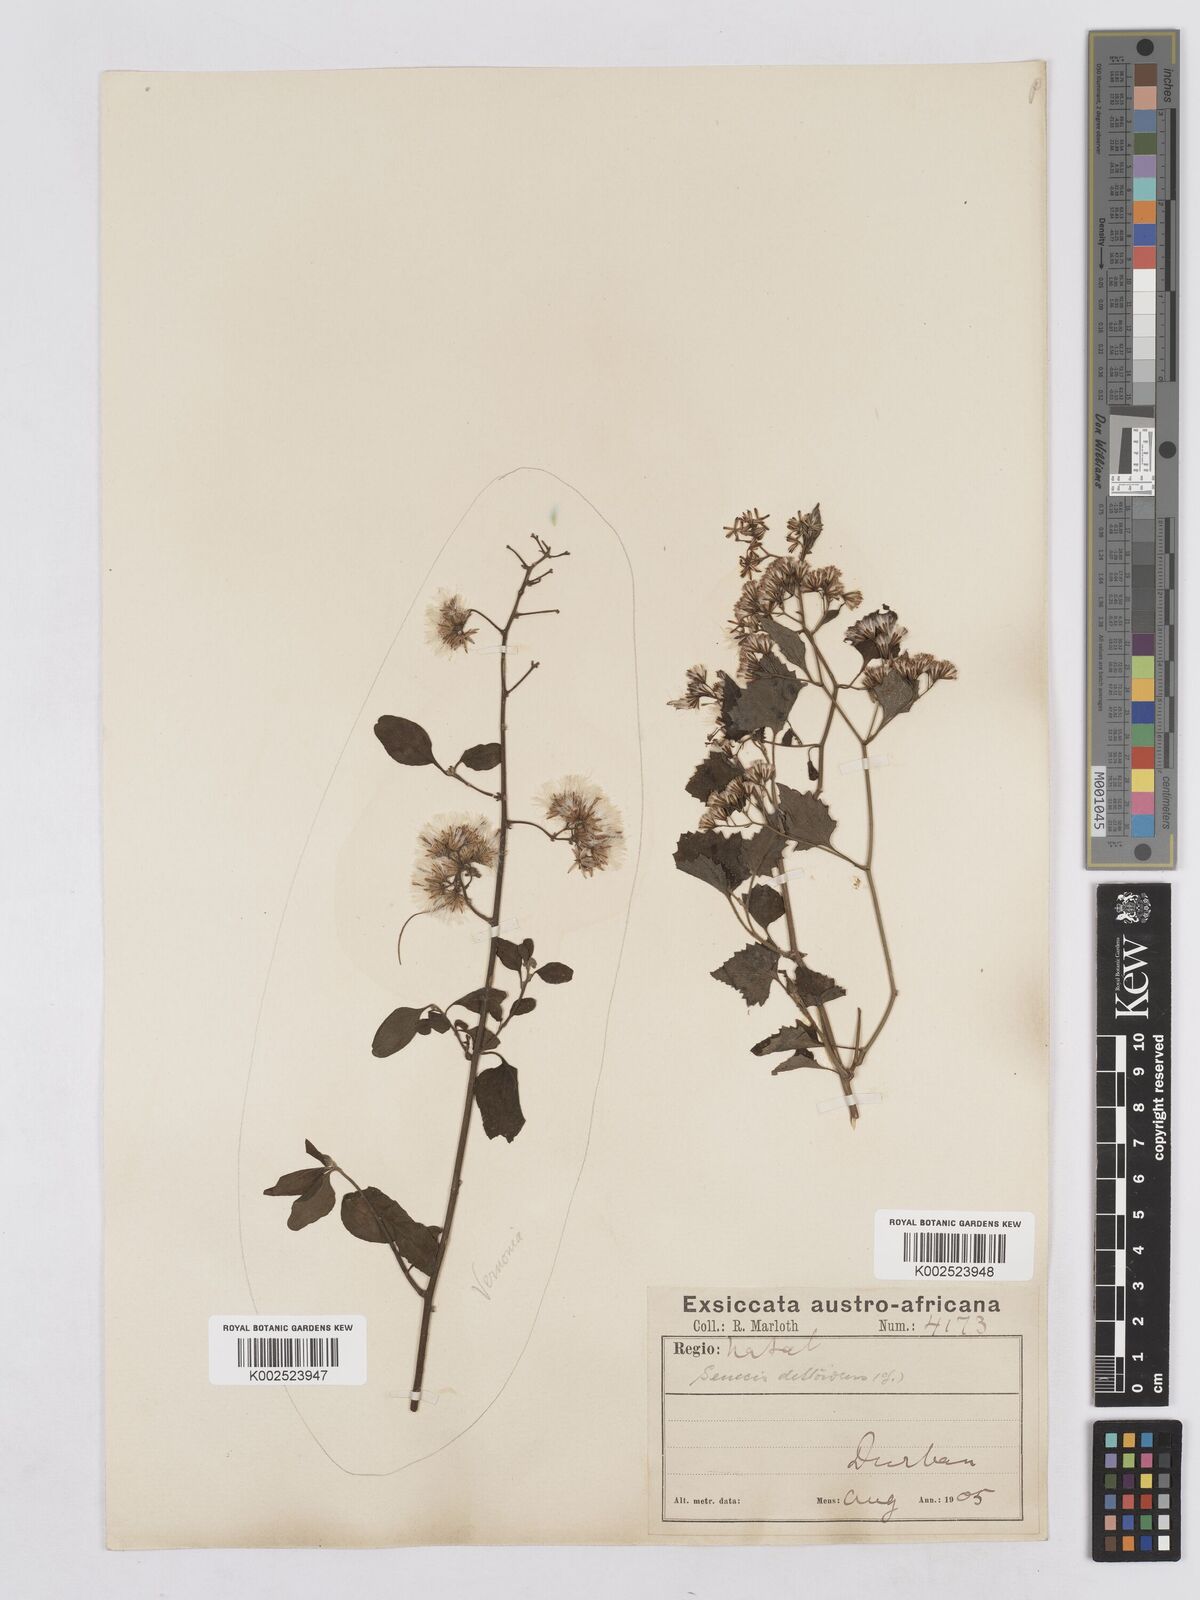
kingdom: Plantae
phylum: Tracheophyta
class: Magnoliopsida
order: Asterales
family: Asteraceae
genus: Senecio
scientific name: Senecio deltoideus
